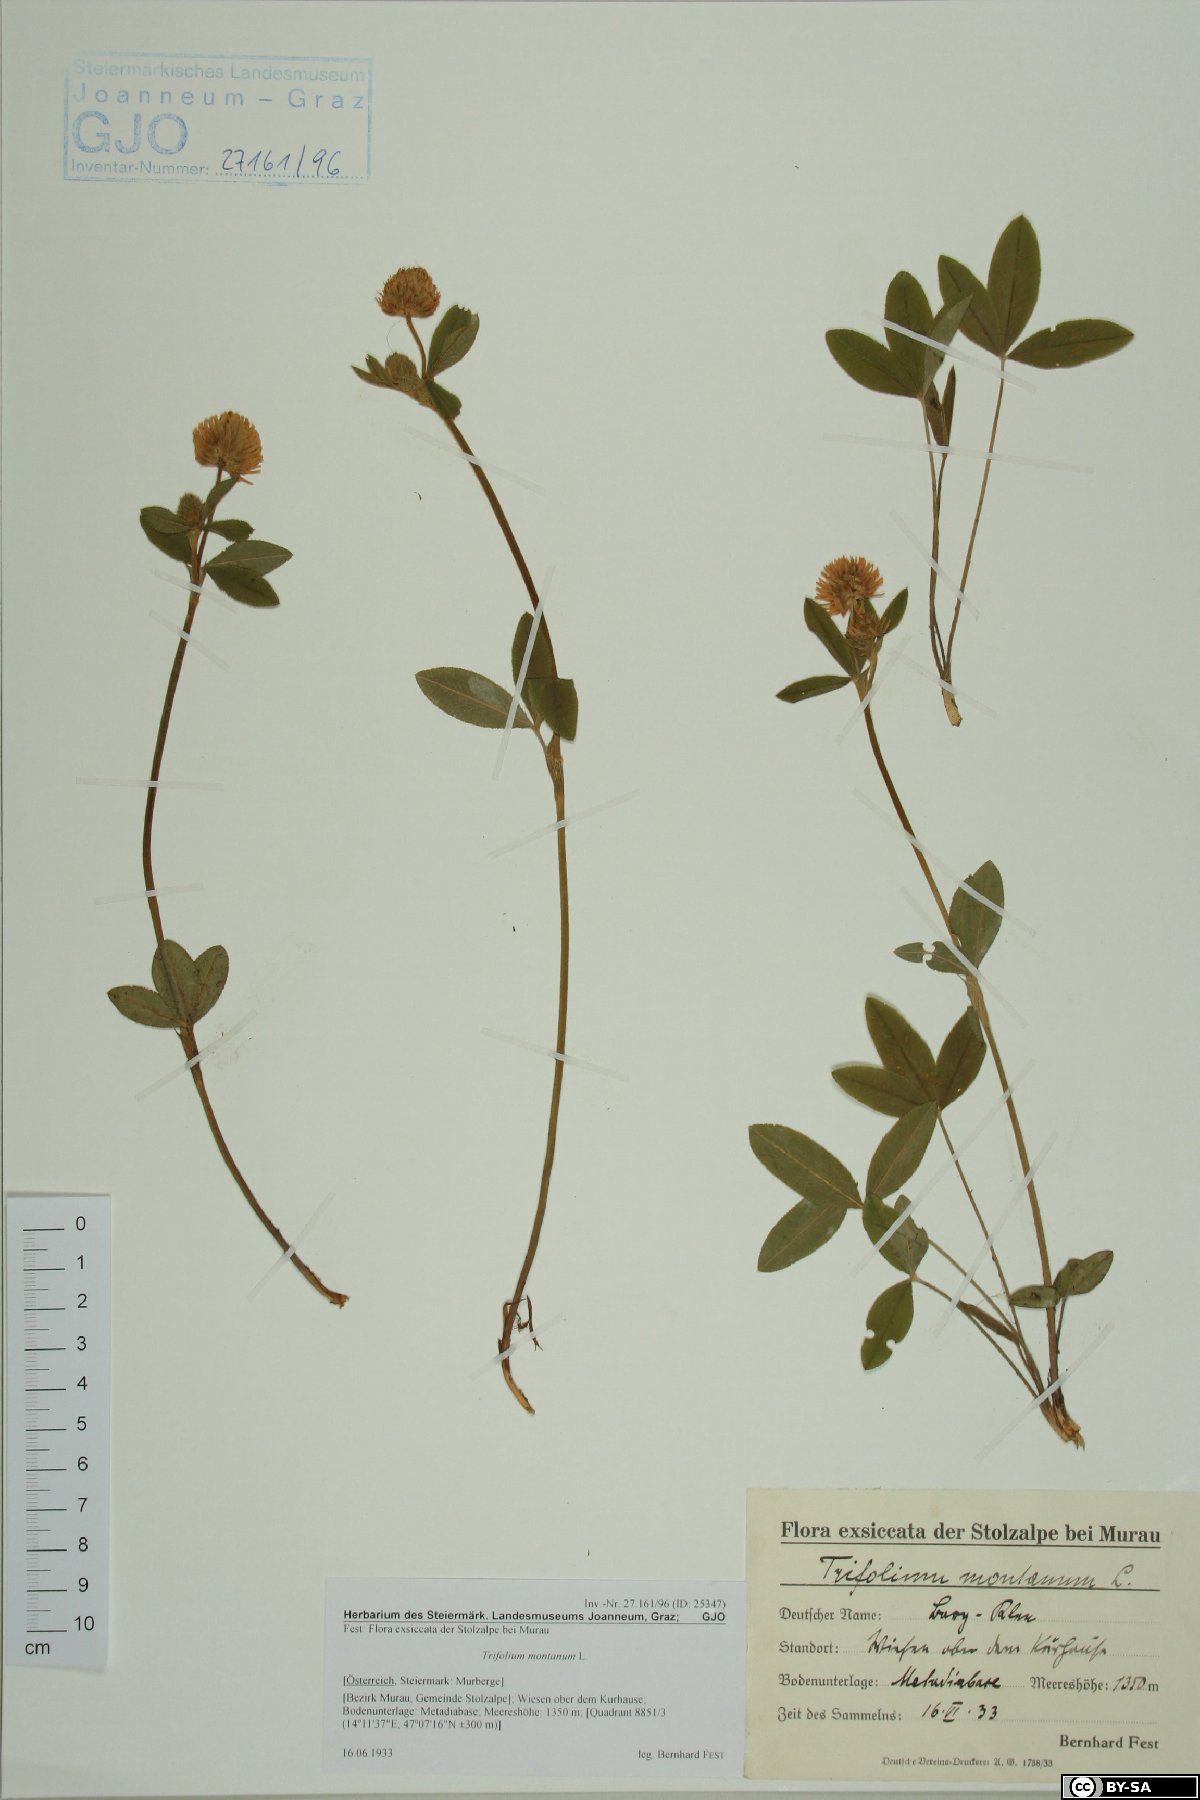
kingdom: Plantae
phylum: Tracheophyta
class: Magnoliopsida
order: Fabales
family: Fabaceae
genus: Trifolium
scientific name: Trifolium montanum
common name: Mountain clover
